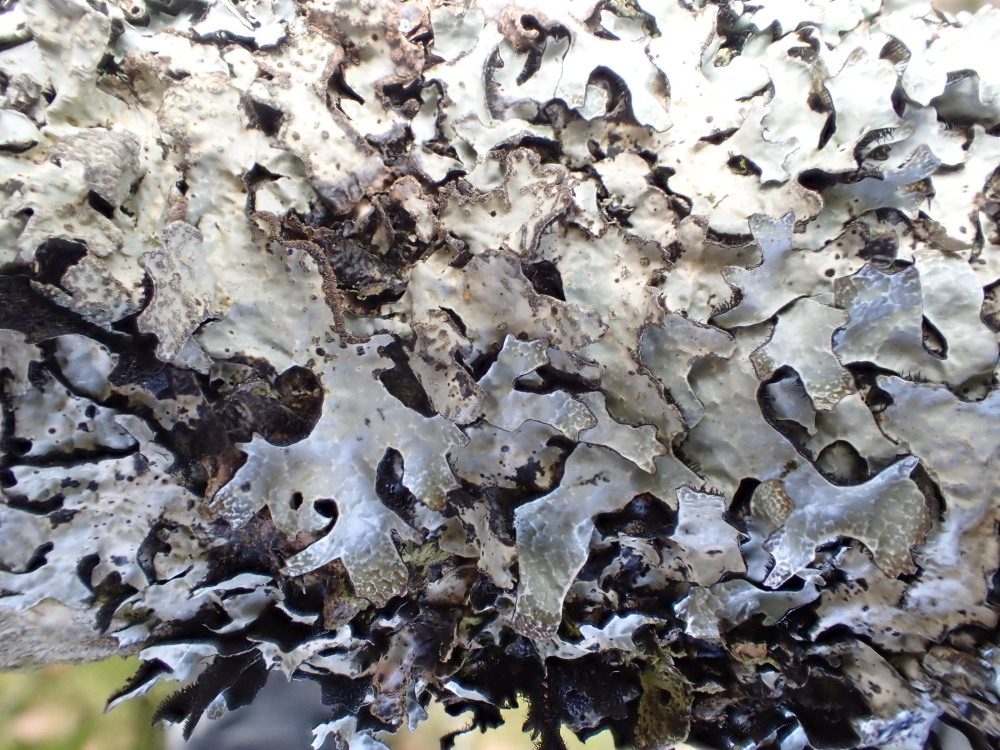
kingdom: Fungi
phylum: Ascomycota
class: Lecanoromycetes
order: Lecanorales
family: Parmeliaceae
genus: Parmelia
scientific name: Parmelia sulcata
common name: rynket skållav
